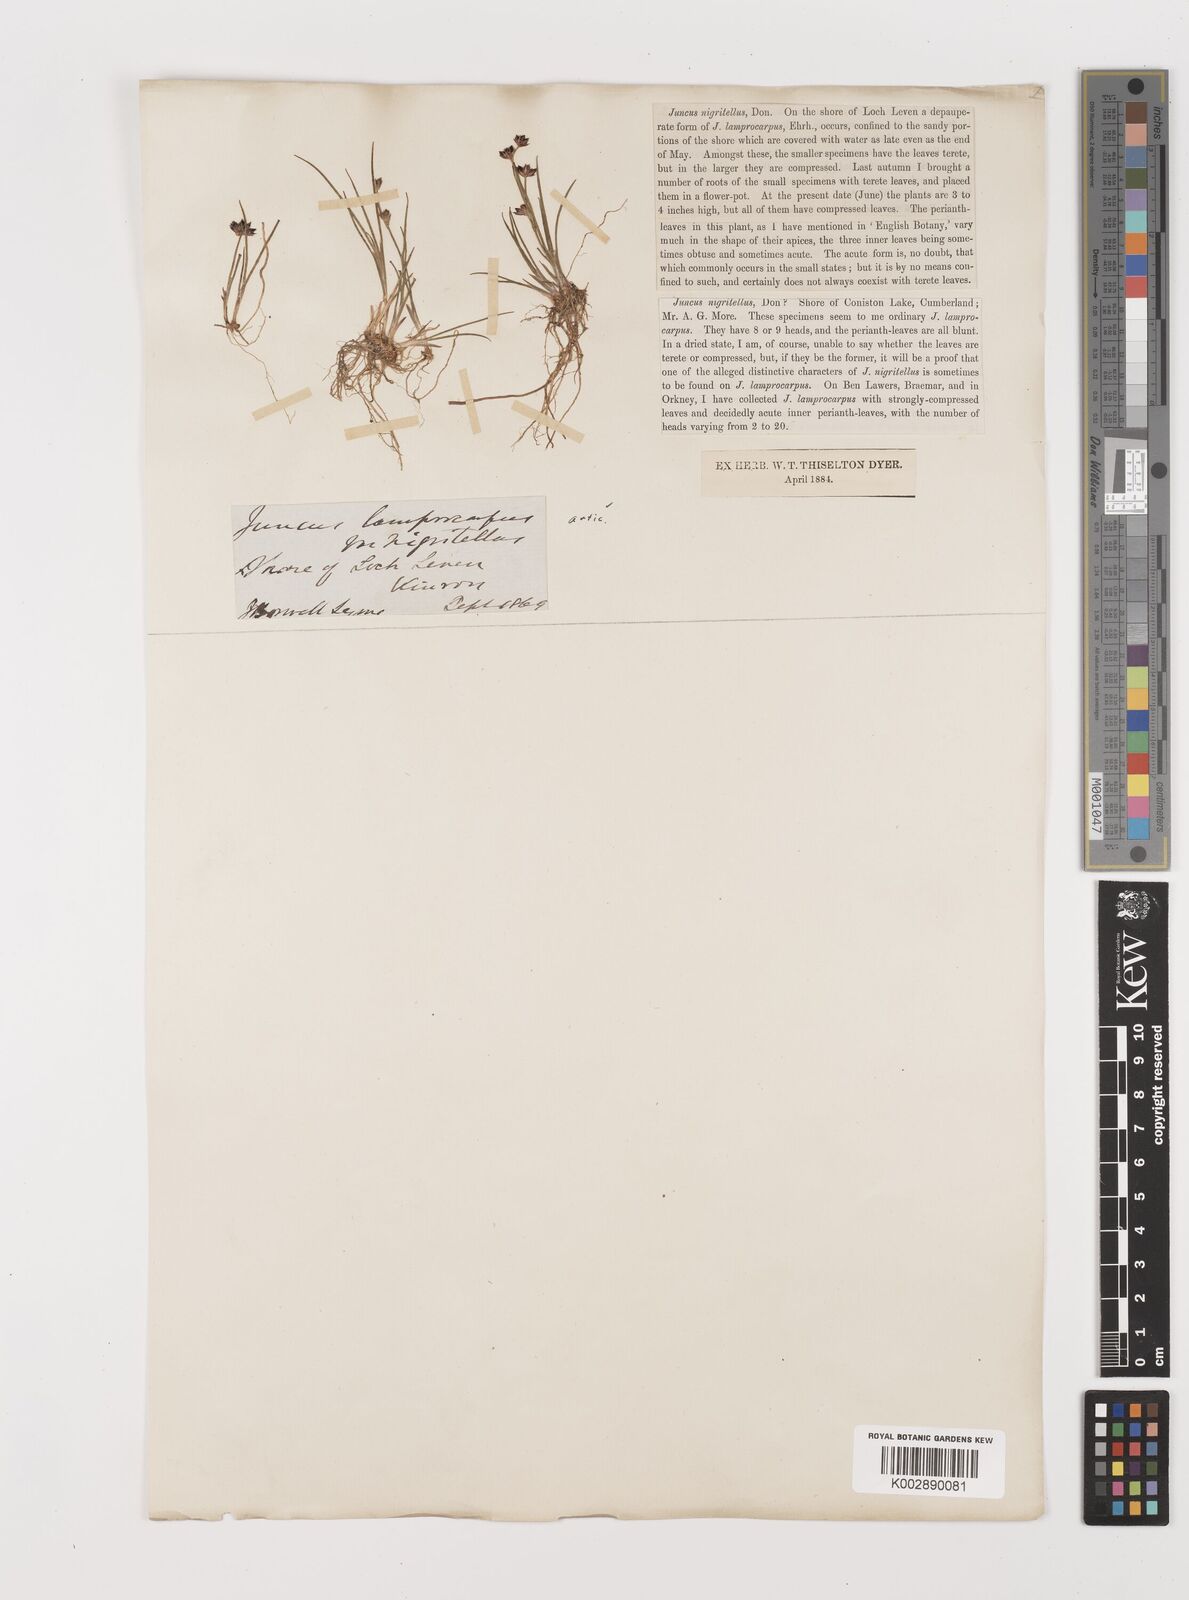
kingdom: Plantae
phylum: Tracheophyta
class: Liliopsida
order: Poales
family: Juncaceae
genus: Juncus
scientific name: Juncus articulatus
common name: Jointed rush
